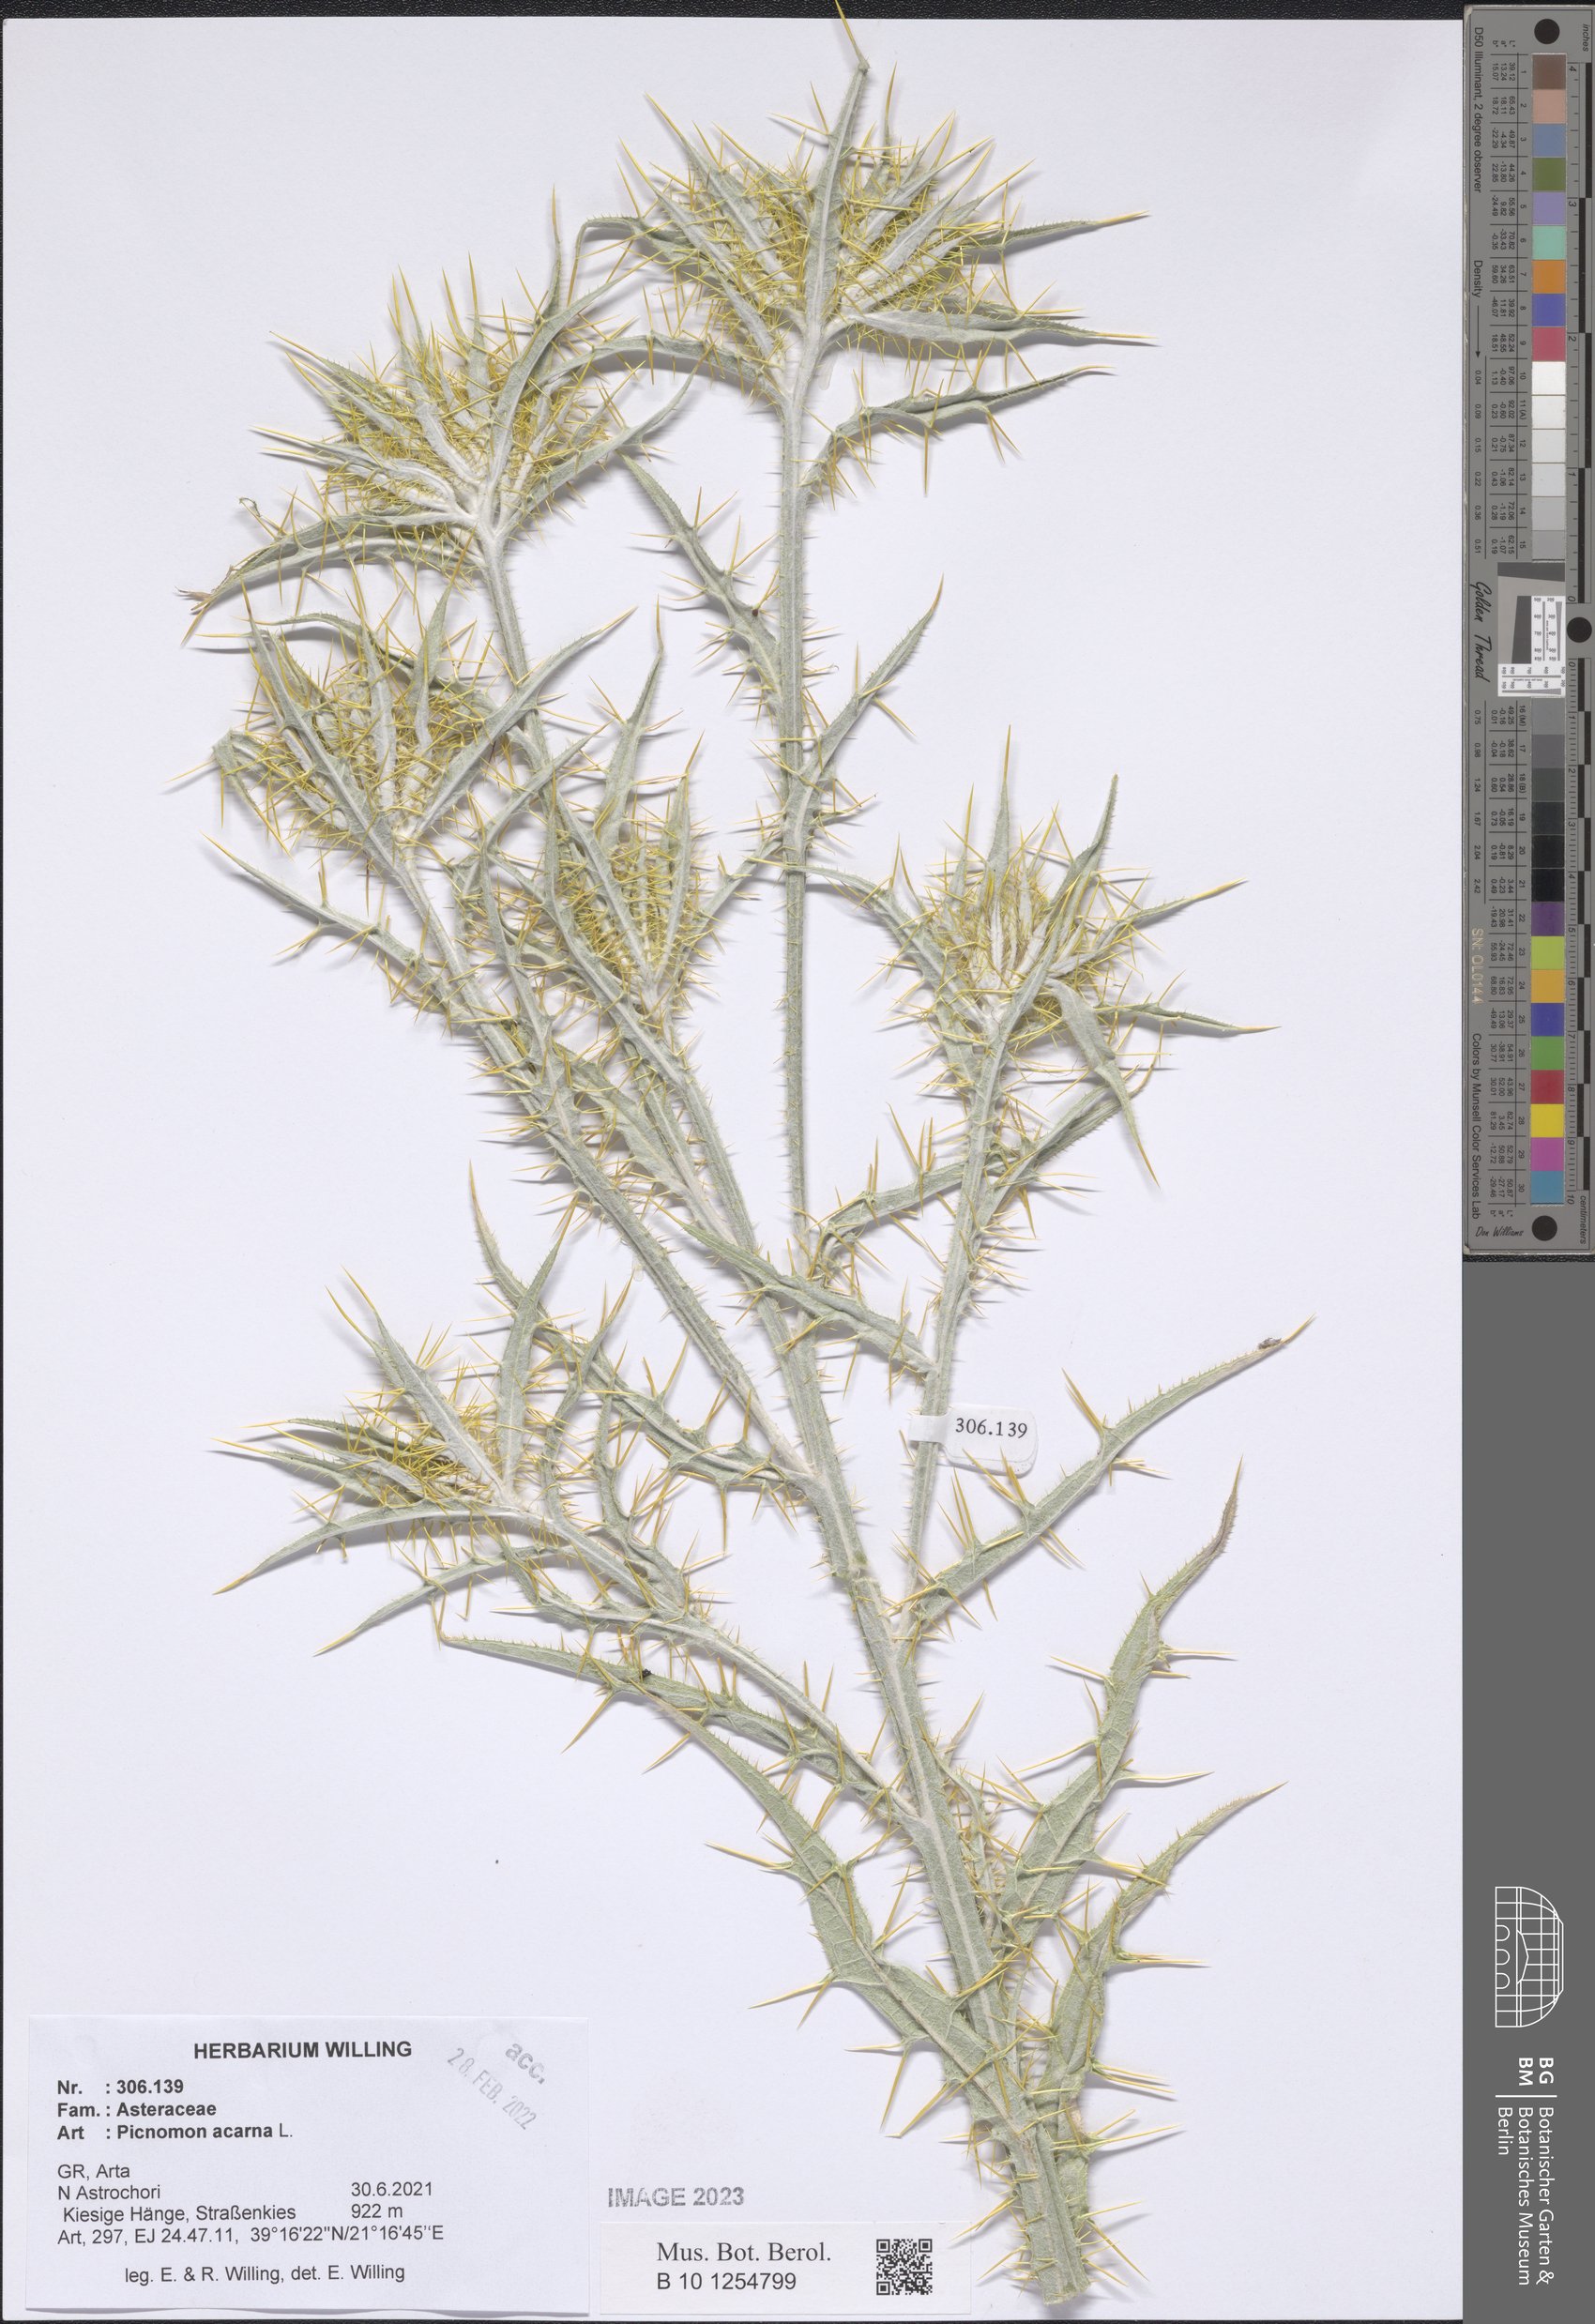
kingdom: Plantae
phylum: Tracheophyta
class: Magnoliopsida
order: Asterales
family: Asteraceae
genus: Picnomon
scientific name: Picnomon acarna
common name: Soldier thistle
